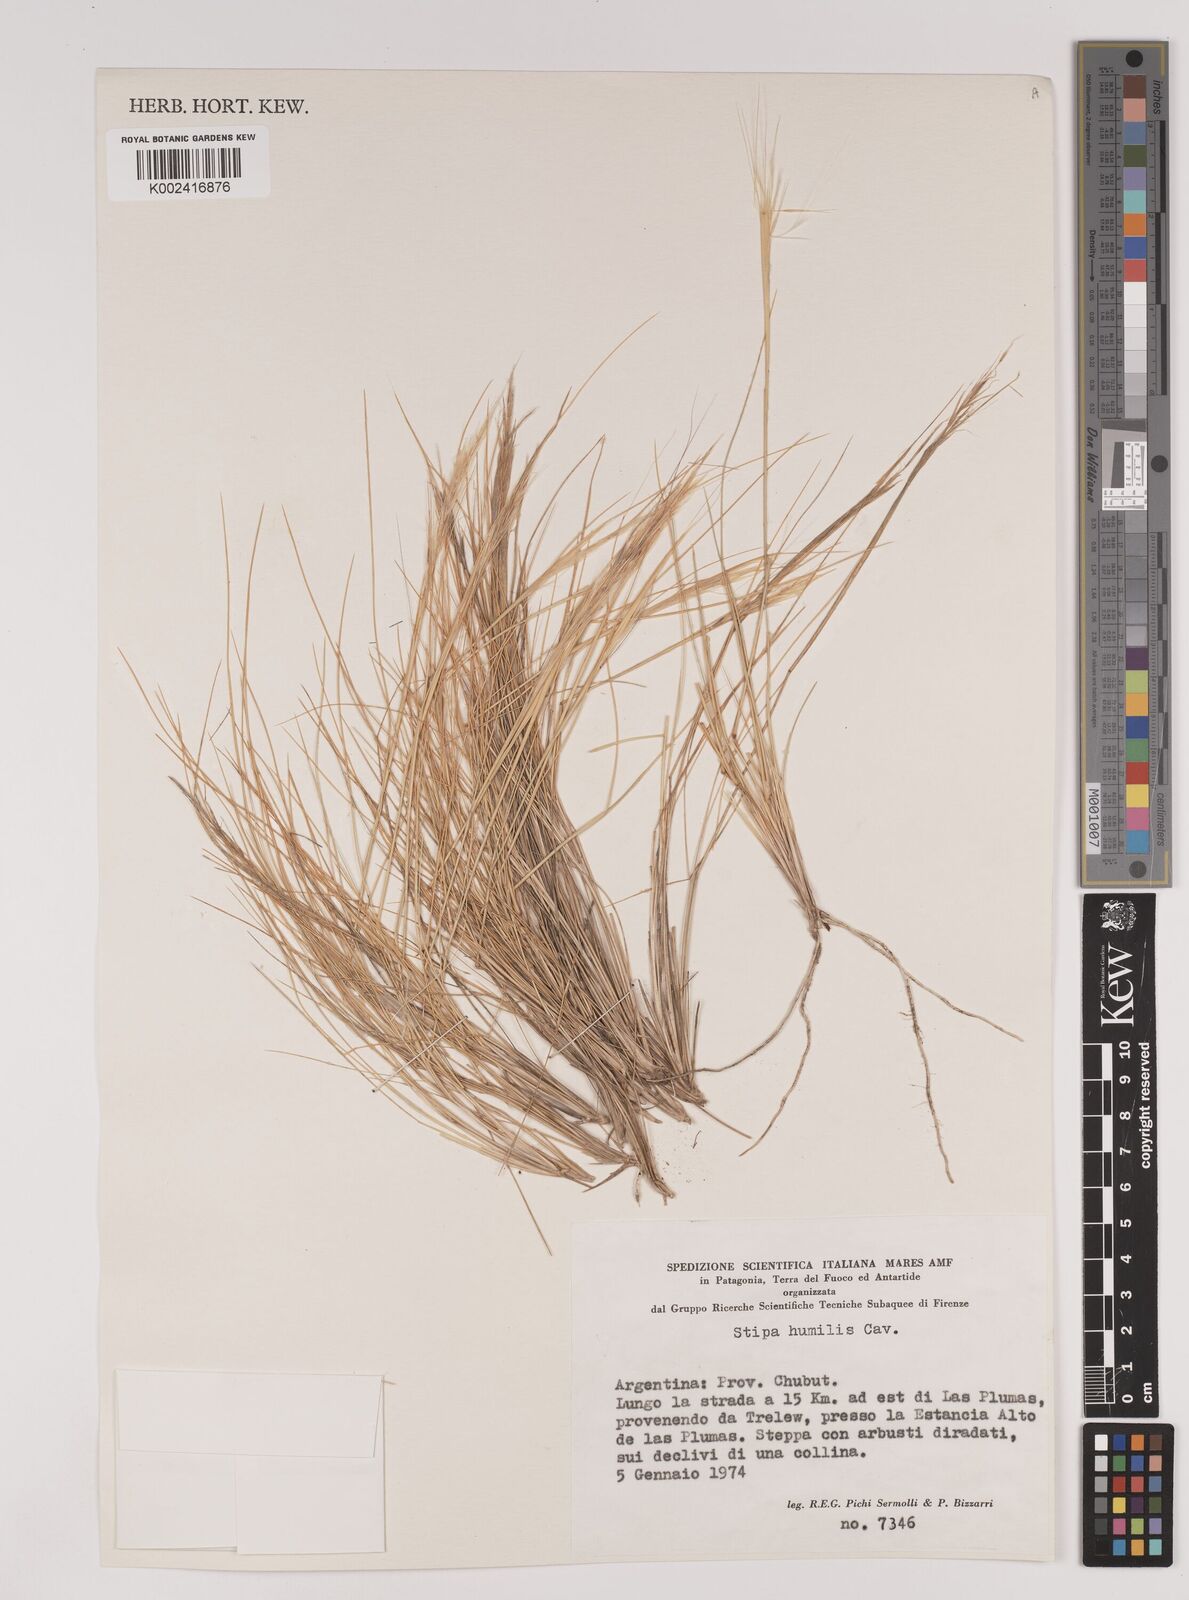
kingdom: Plantae
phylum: Tracheophyta
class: Liliopsida
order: Poales
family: Poaceae
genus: Pappostipa
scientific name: Pappostipa humilis
